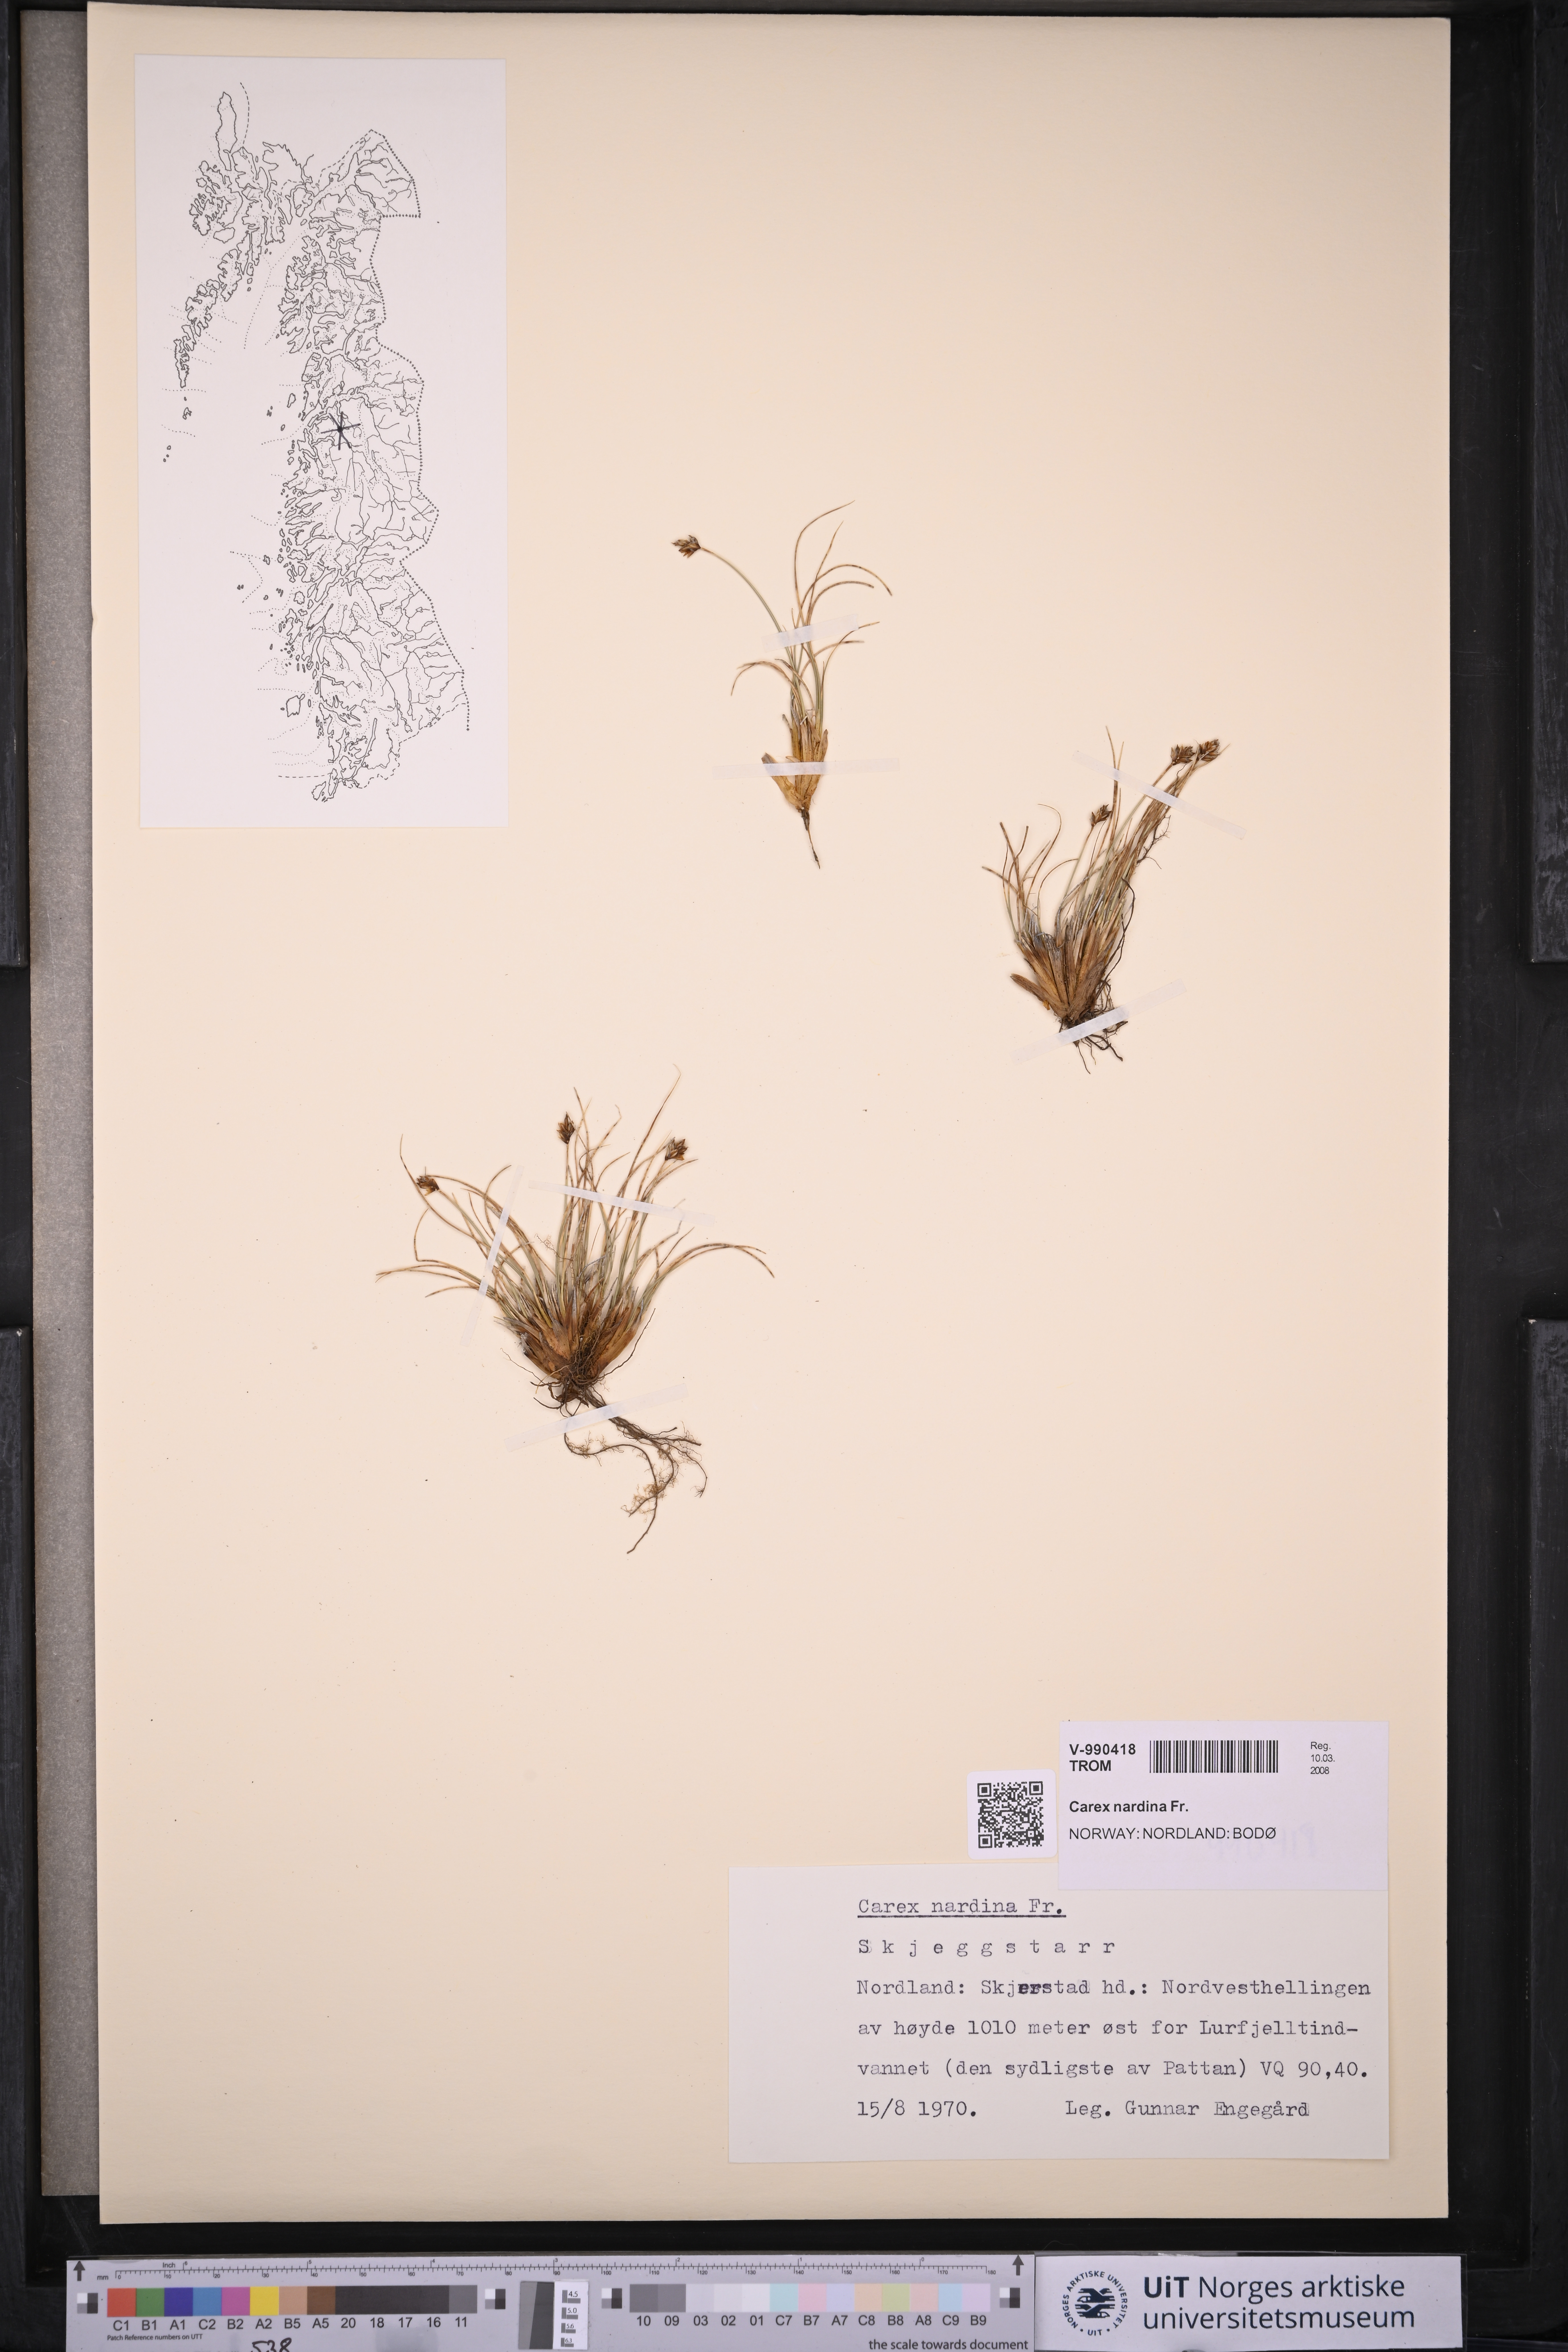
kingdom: Plantae
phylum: Tracheophyta
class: Liliopsida
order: Poales
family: Cyperaceae
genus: Carex
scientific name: Carex nardina
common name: Nard sedge
